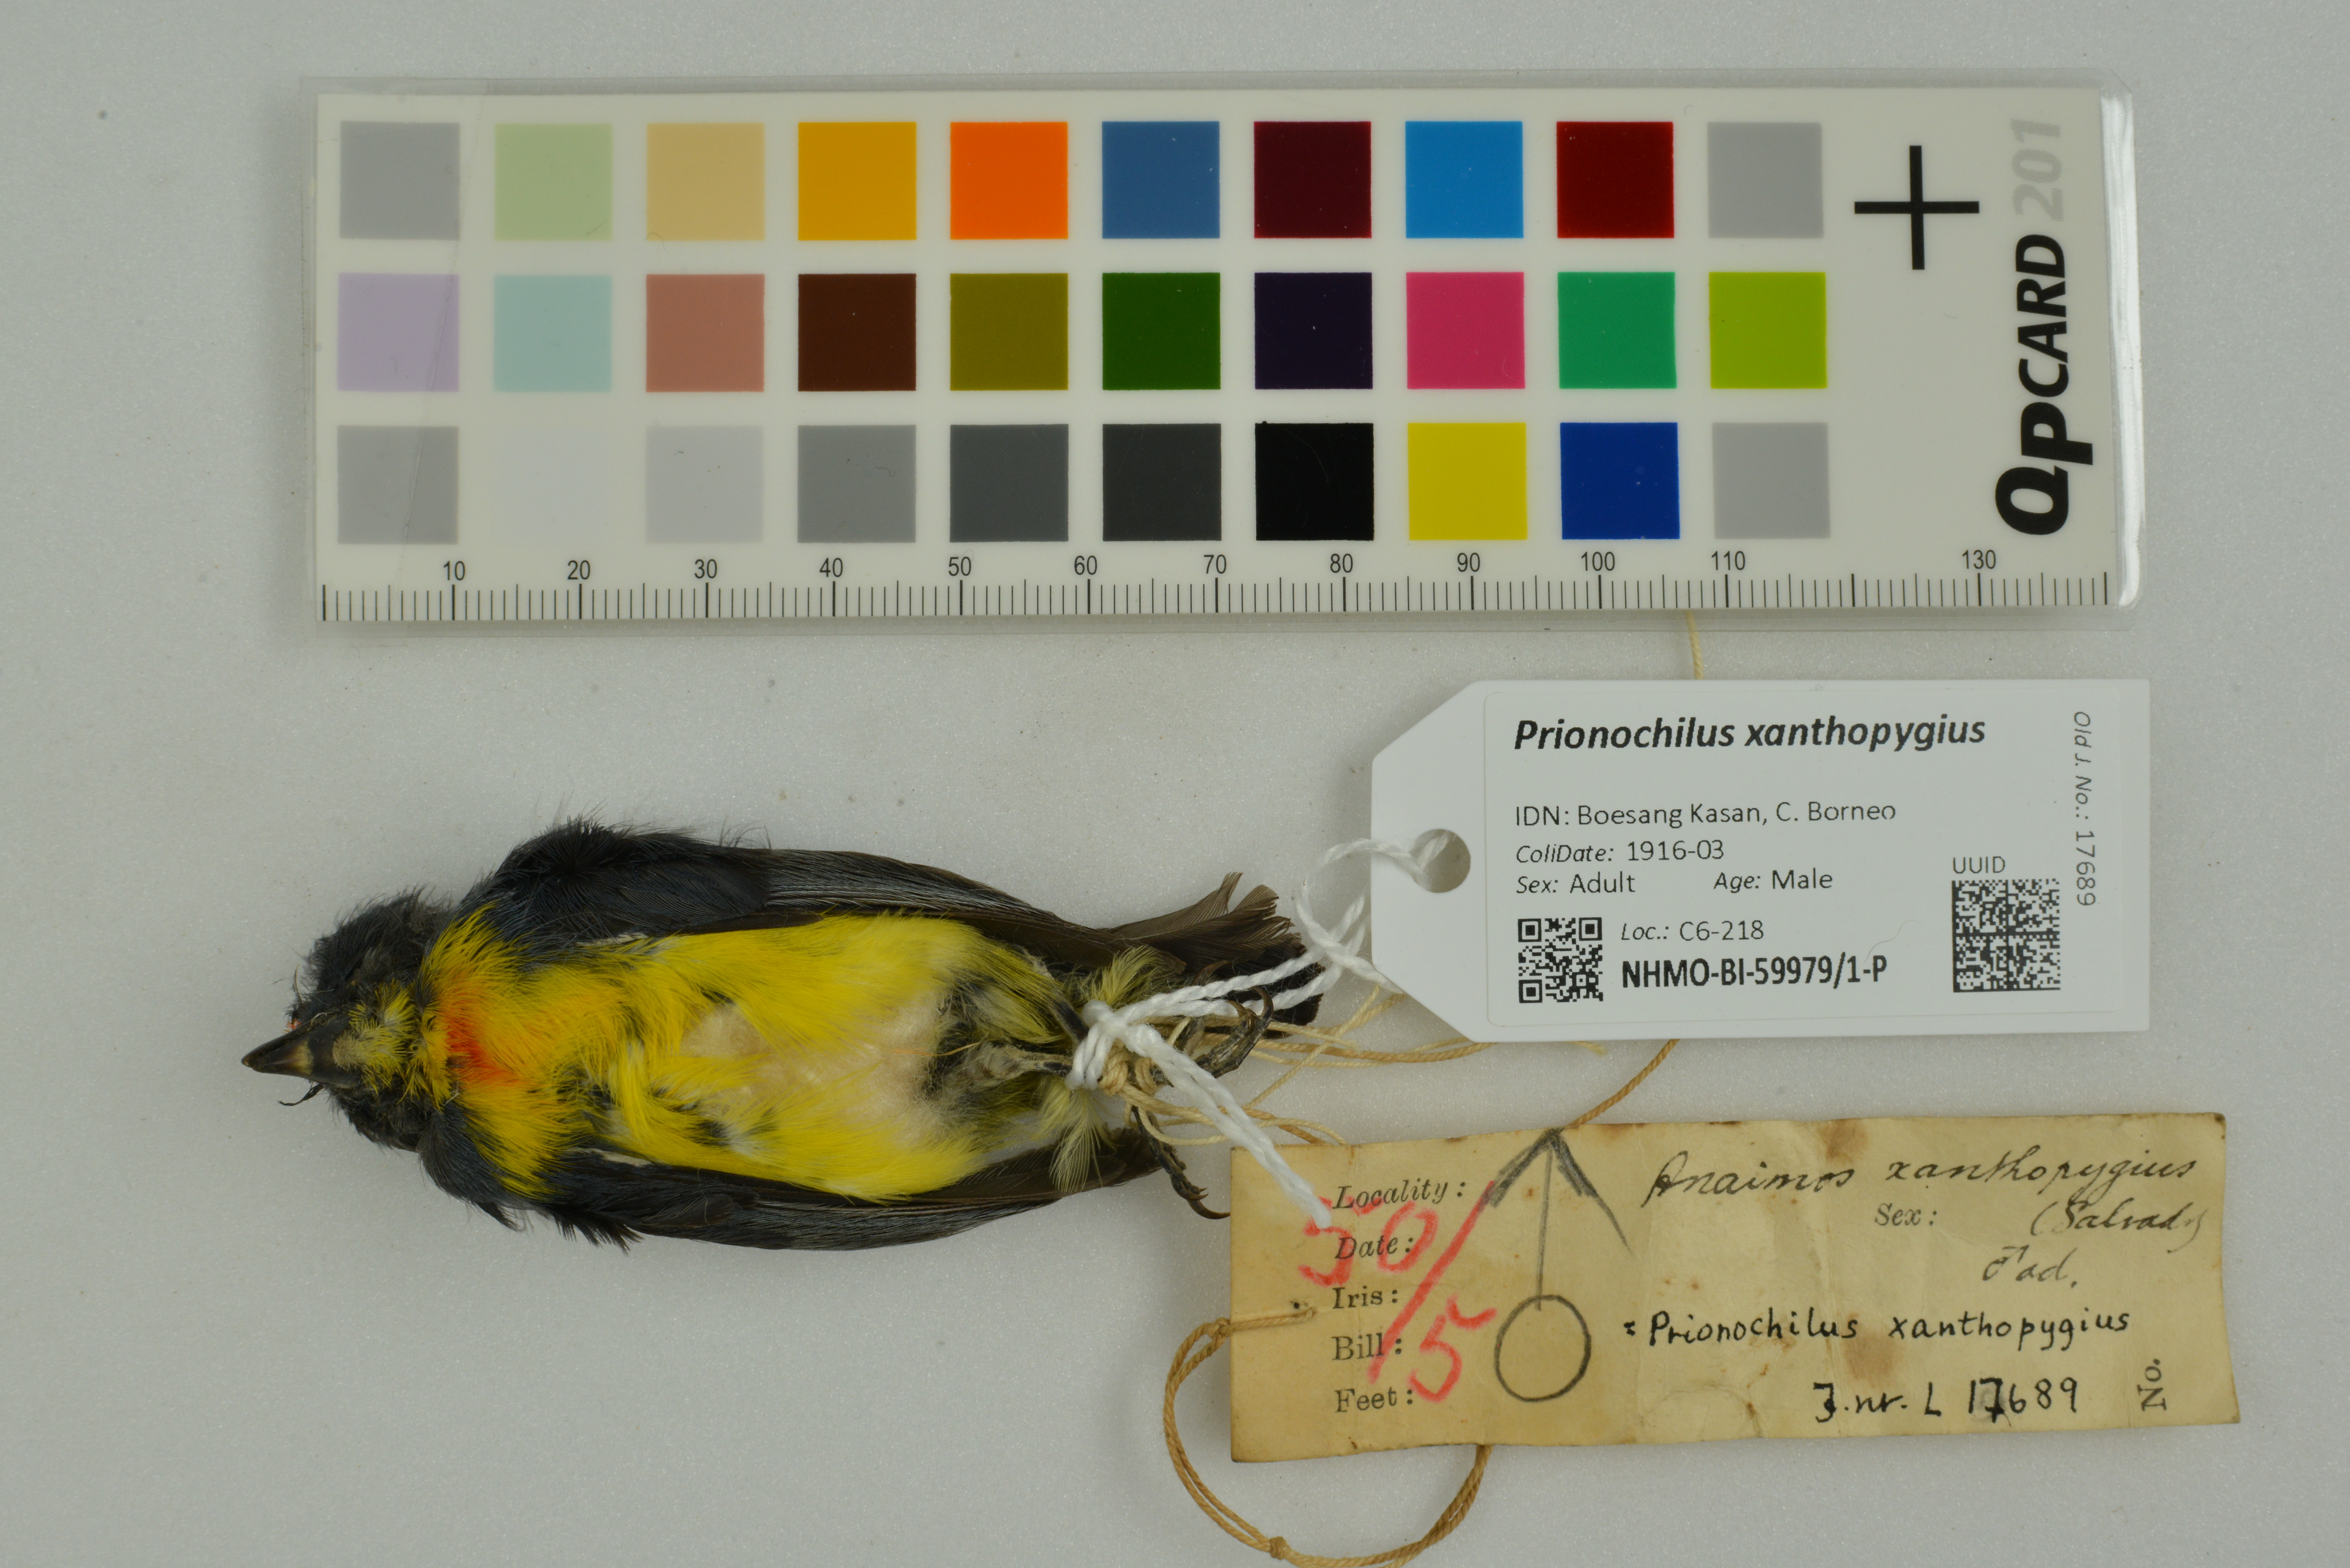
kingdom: Animalia
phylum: Chordata
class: Aves
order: Passeriformes
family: Dicaeidae
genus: Prionochilus
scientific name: Prionochilus xanthopygius
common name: Yellow-rumped flowerpecker
